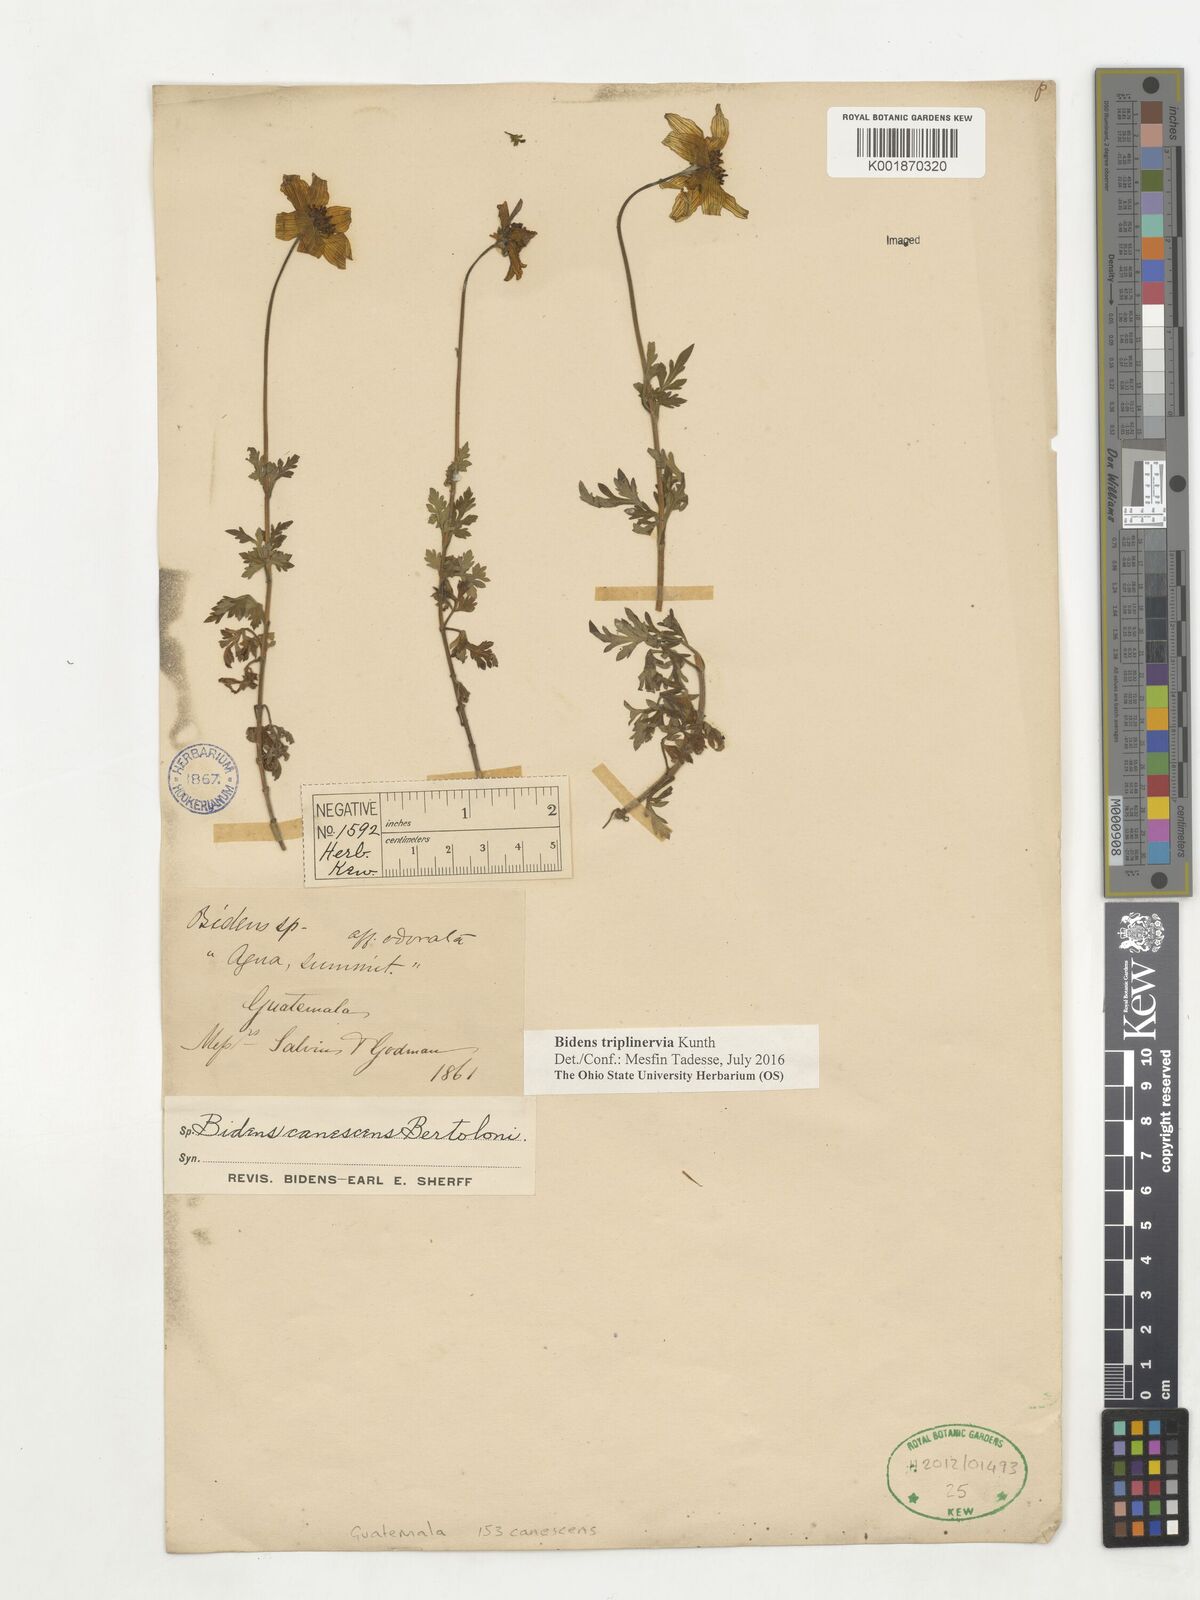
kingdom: Plantae
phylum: Tracheophyta
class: Magnoliopsida
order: Asterales
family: Asteraceae
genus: Bidens
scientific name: Bidens triplinervia
